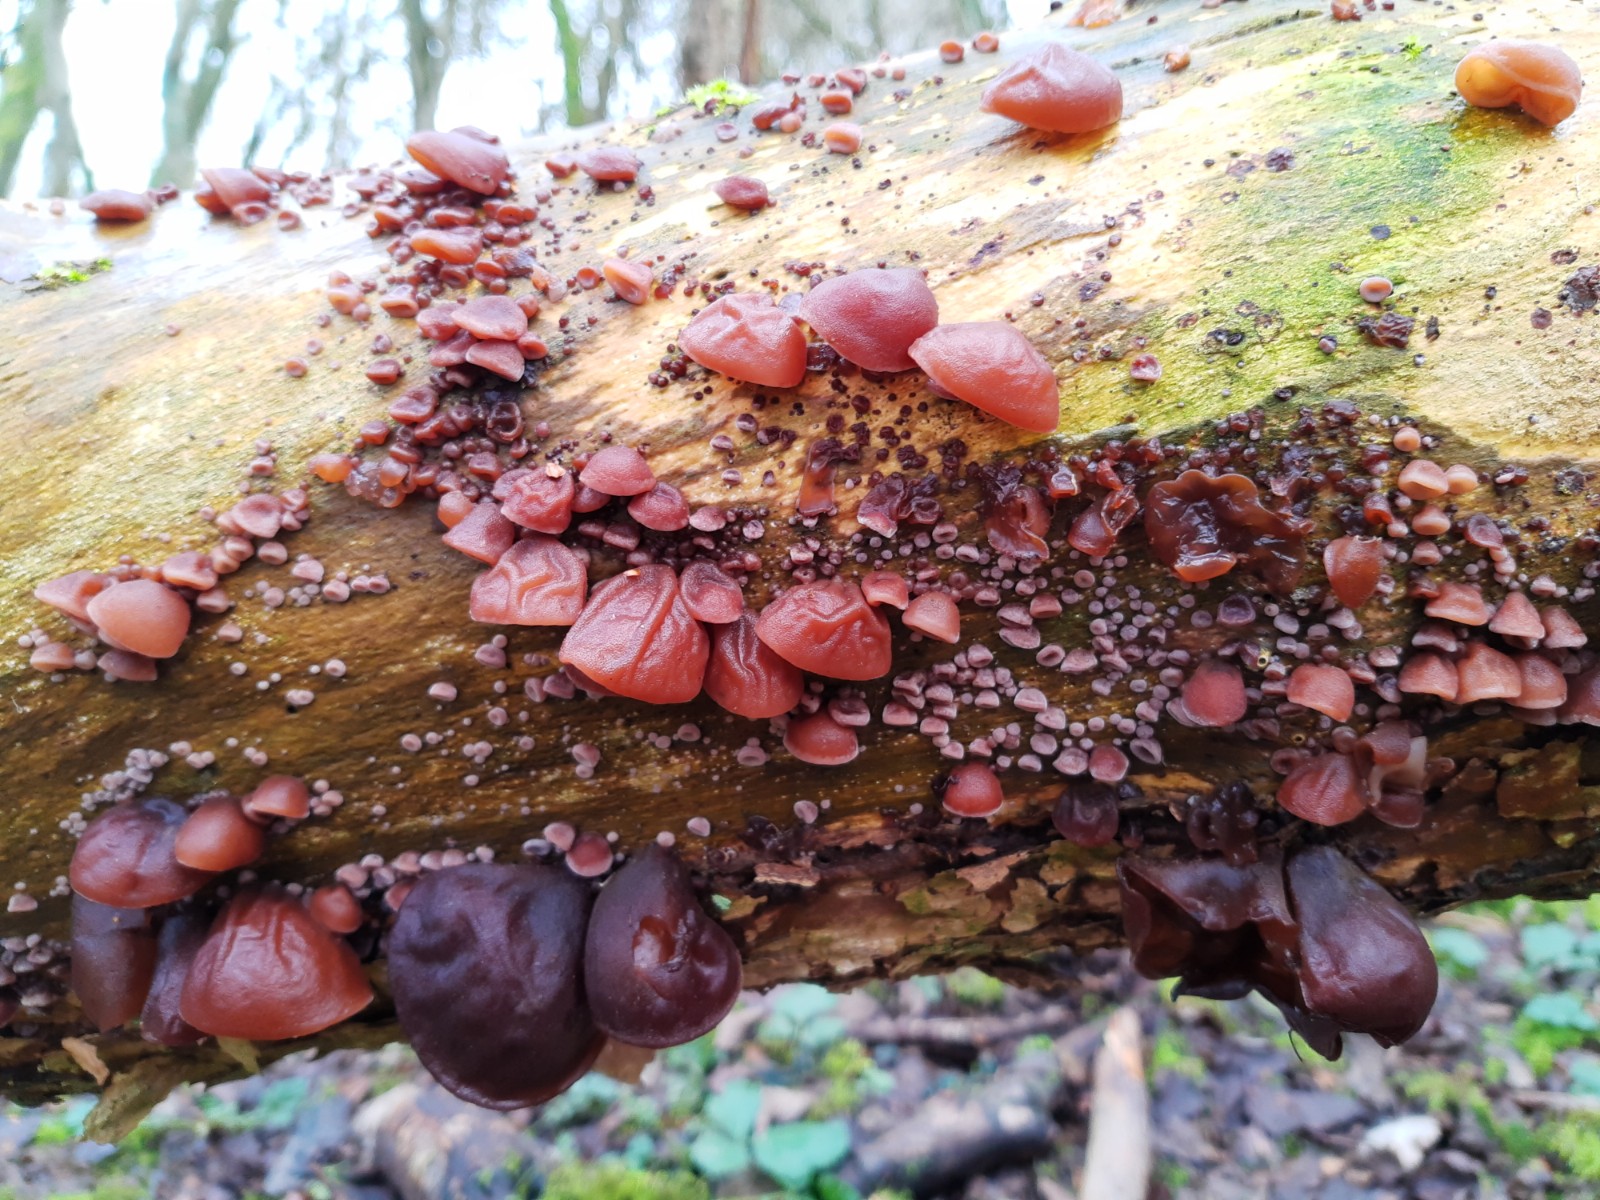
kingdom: Fungi
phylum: Basidiomycota
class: Agaricomycetes
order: Auriculariales
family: Auriculariaceae
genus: Auricularia
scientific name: Auricularia auricula-judae
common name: almindelig judasøre
